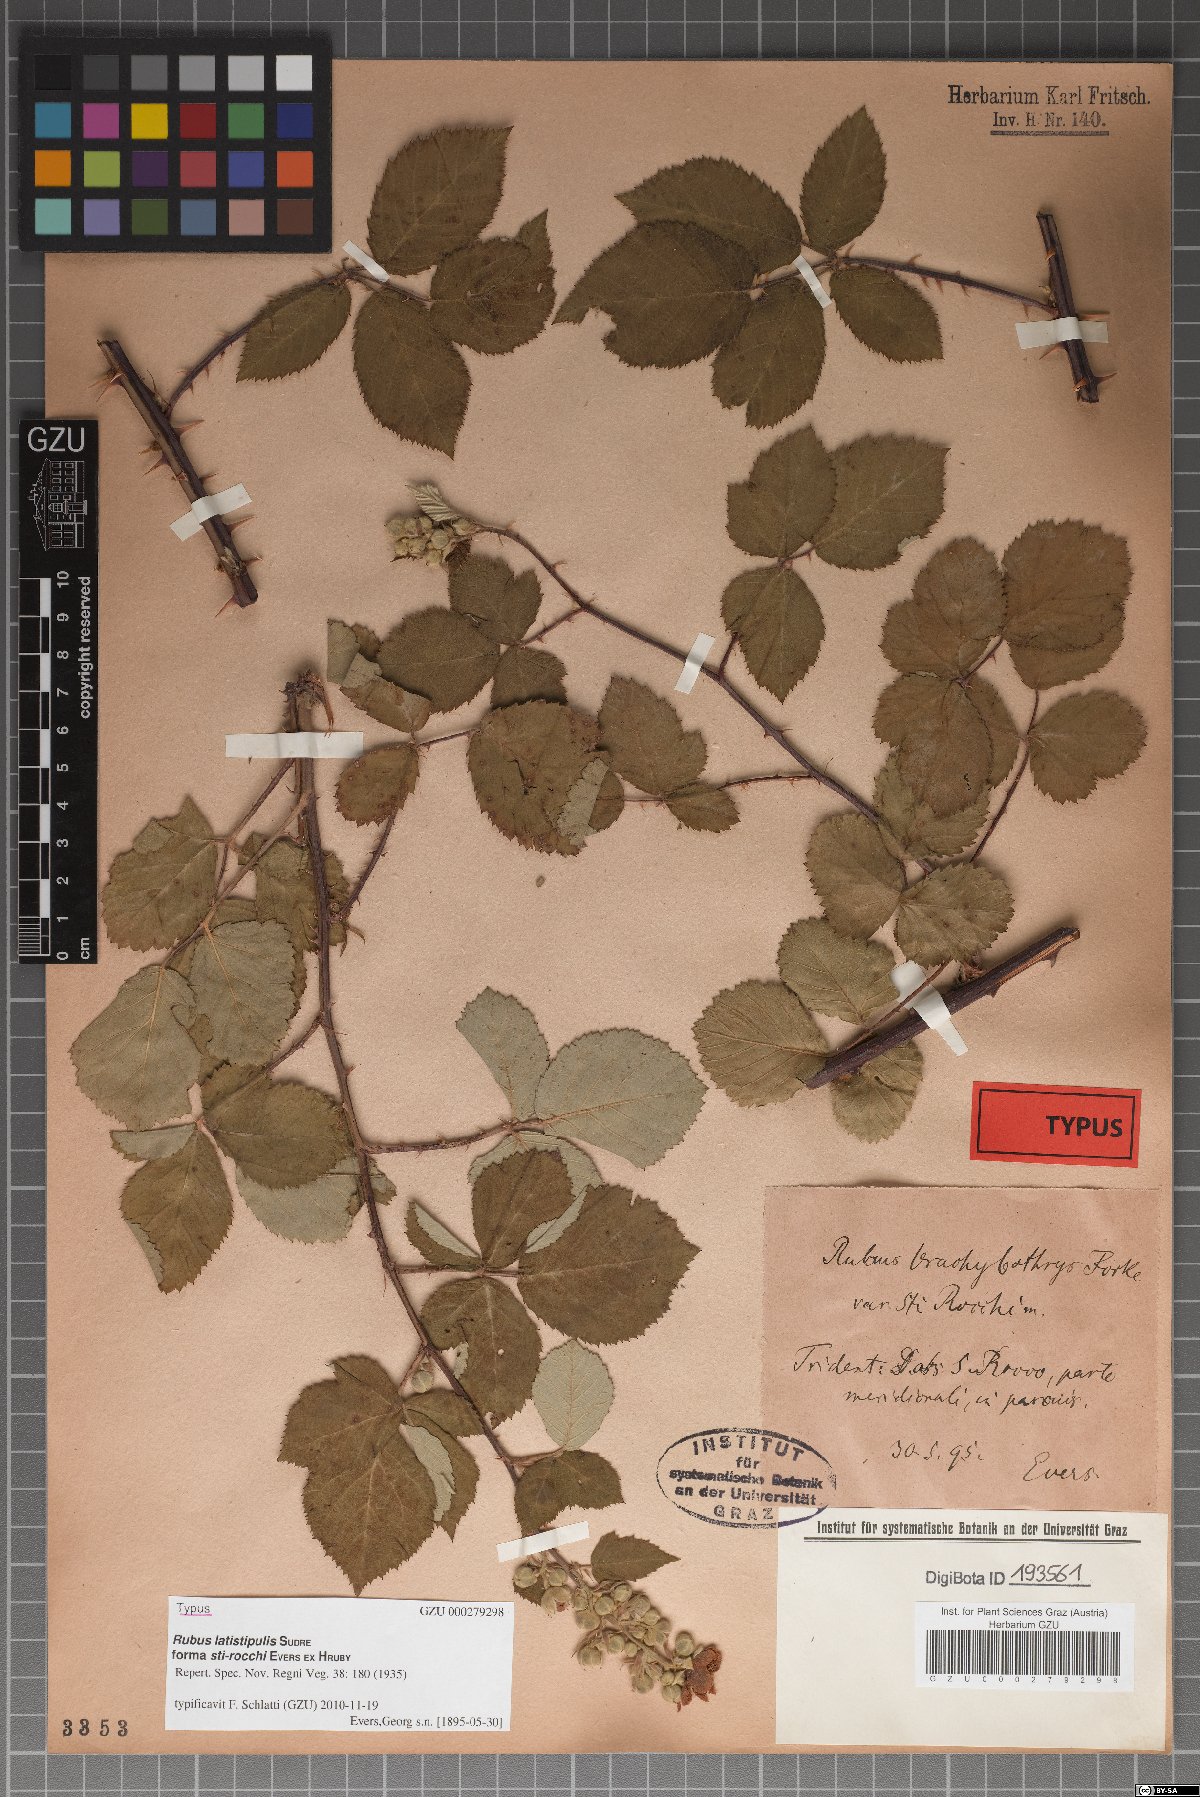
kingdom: Plantae
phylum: Tracheophyta
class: Magnoliopsida
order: Rosales
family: Rosaceae
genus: Rubus
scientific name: Rubus latistipulus
